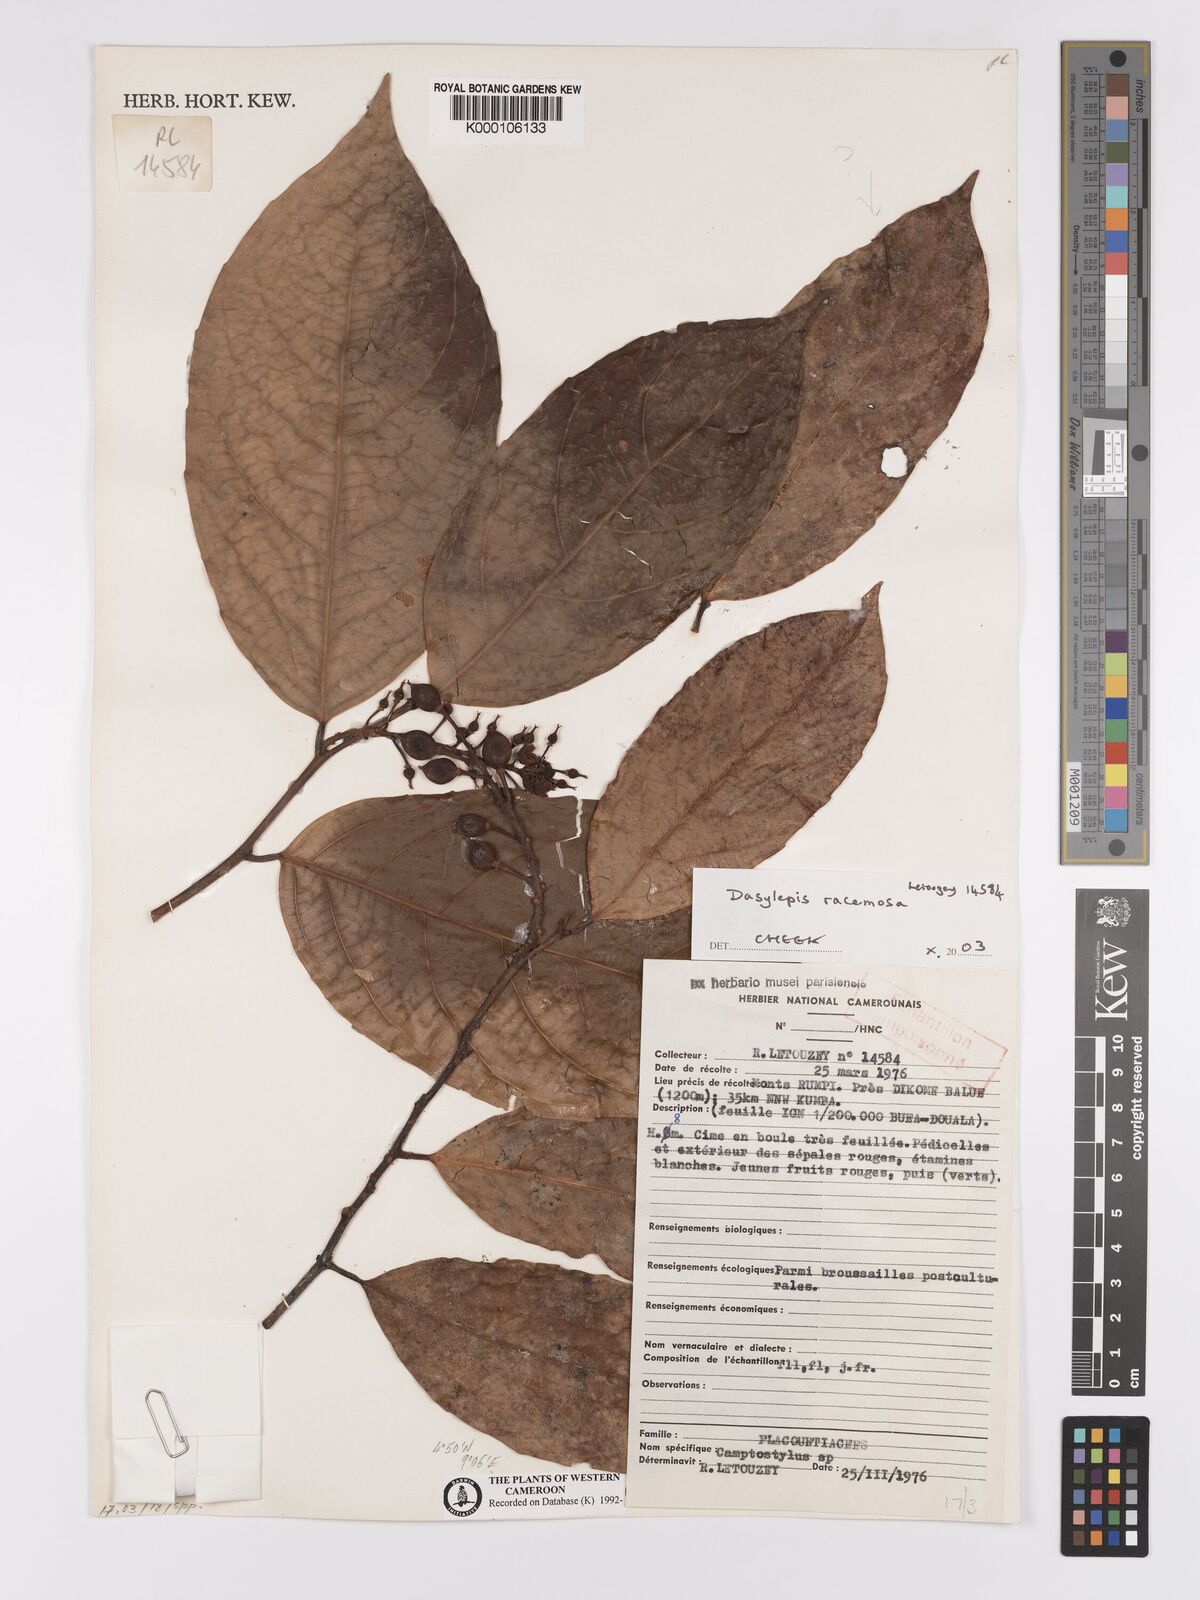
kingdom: Plantae
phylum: Tracheophyta
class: Magnoliopsida
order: Malpighiales
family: Achariaceae
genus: Dasylepis
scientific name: Dasylepis racemosa
